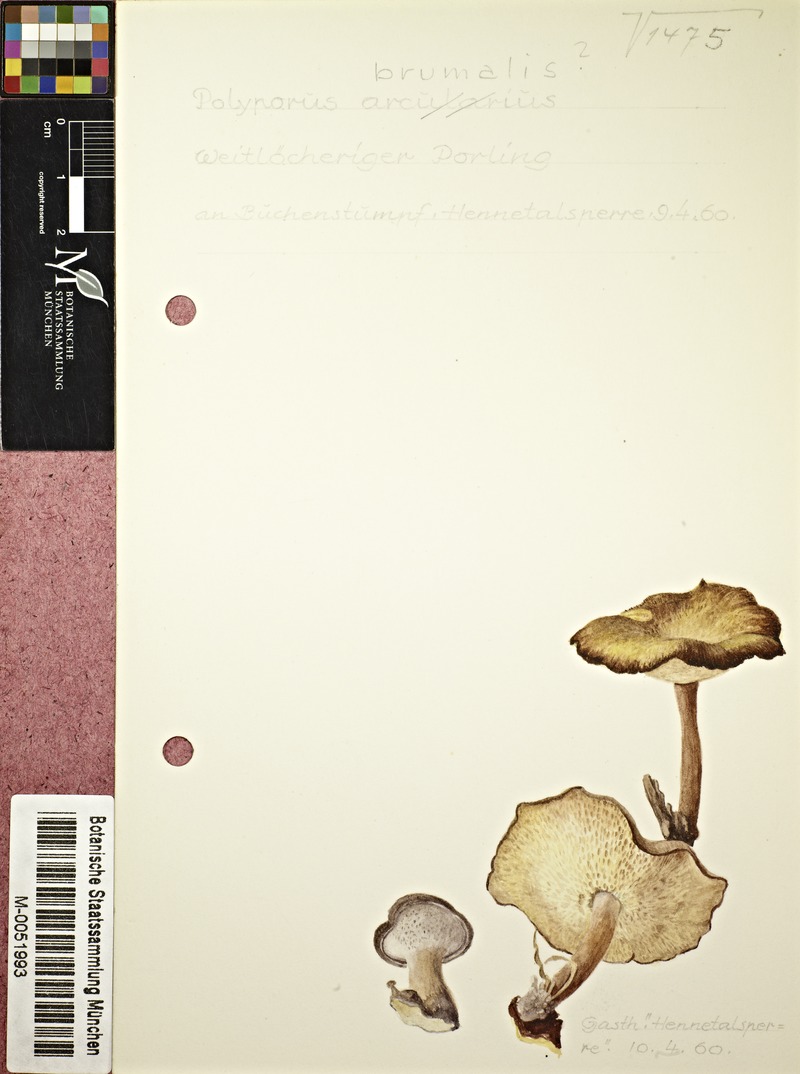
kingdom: Fungi
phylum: Basidiomycota
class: Agaricomycetes
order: Polyporales
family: Polyporaceae
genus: Lentinus
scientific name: Lentinus brumalis
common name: Winter polypore
